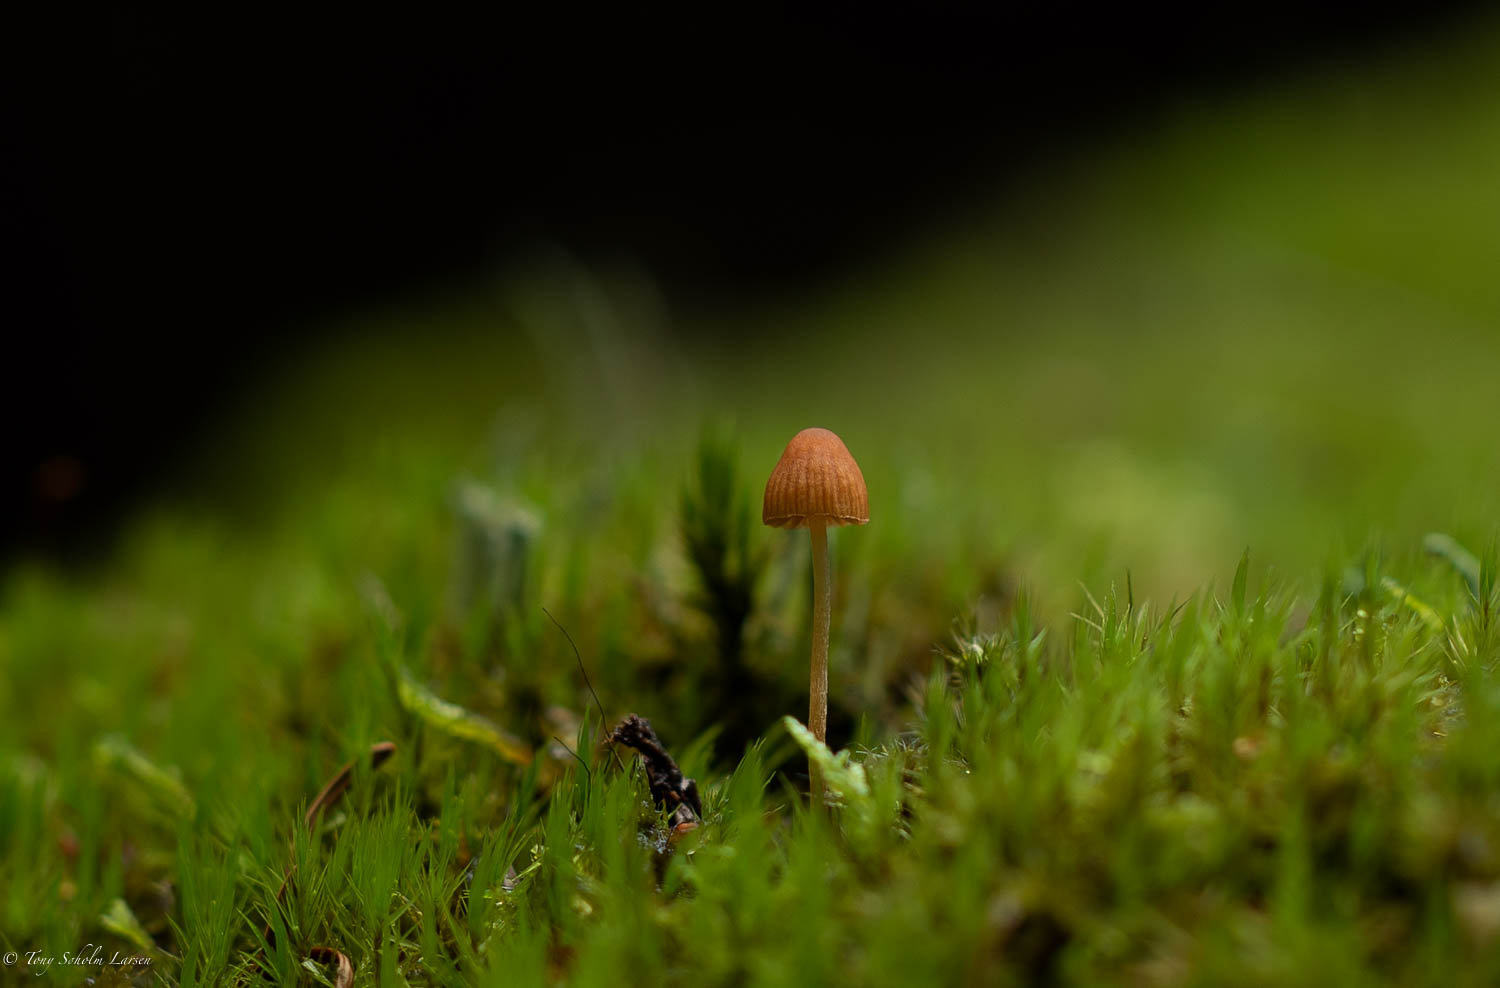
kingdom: Fungi
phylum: Basidiomycota
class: Agaricomycetes
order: Agaricales
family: Hymenogastraceae
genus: Galerina
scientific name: Galerina
